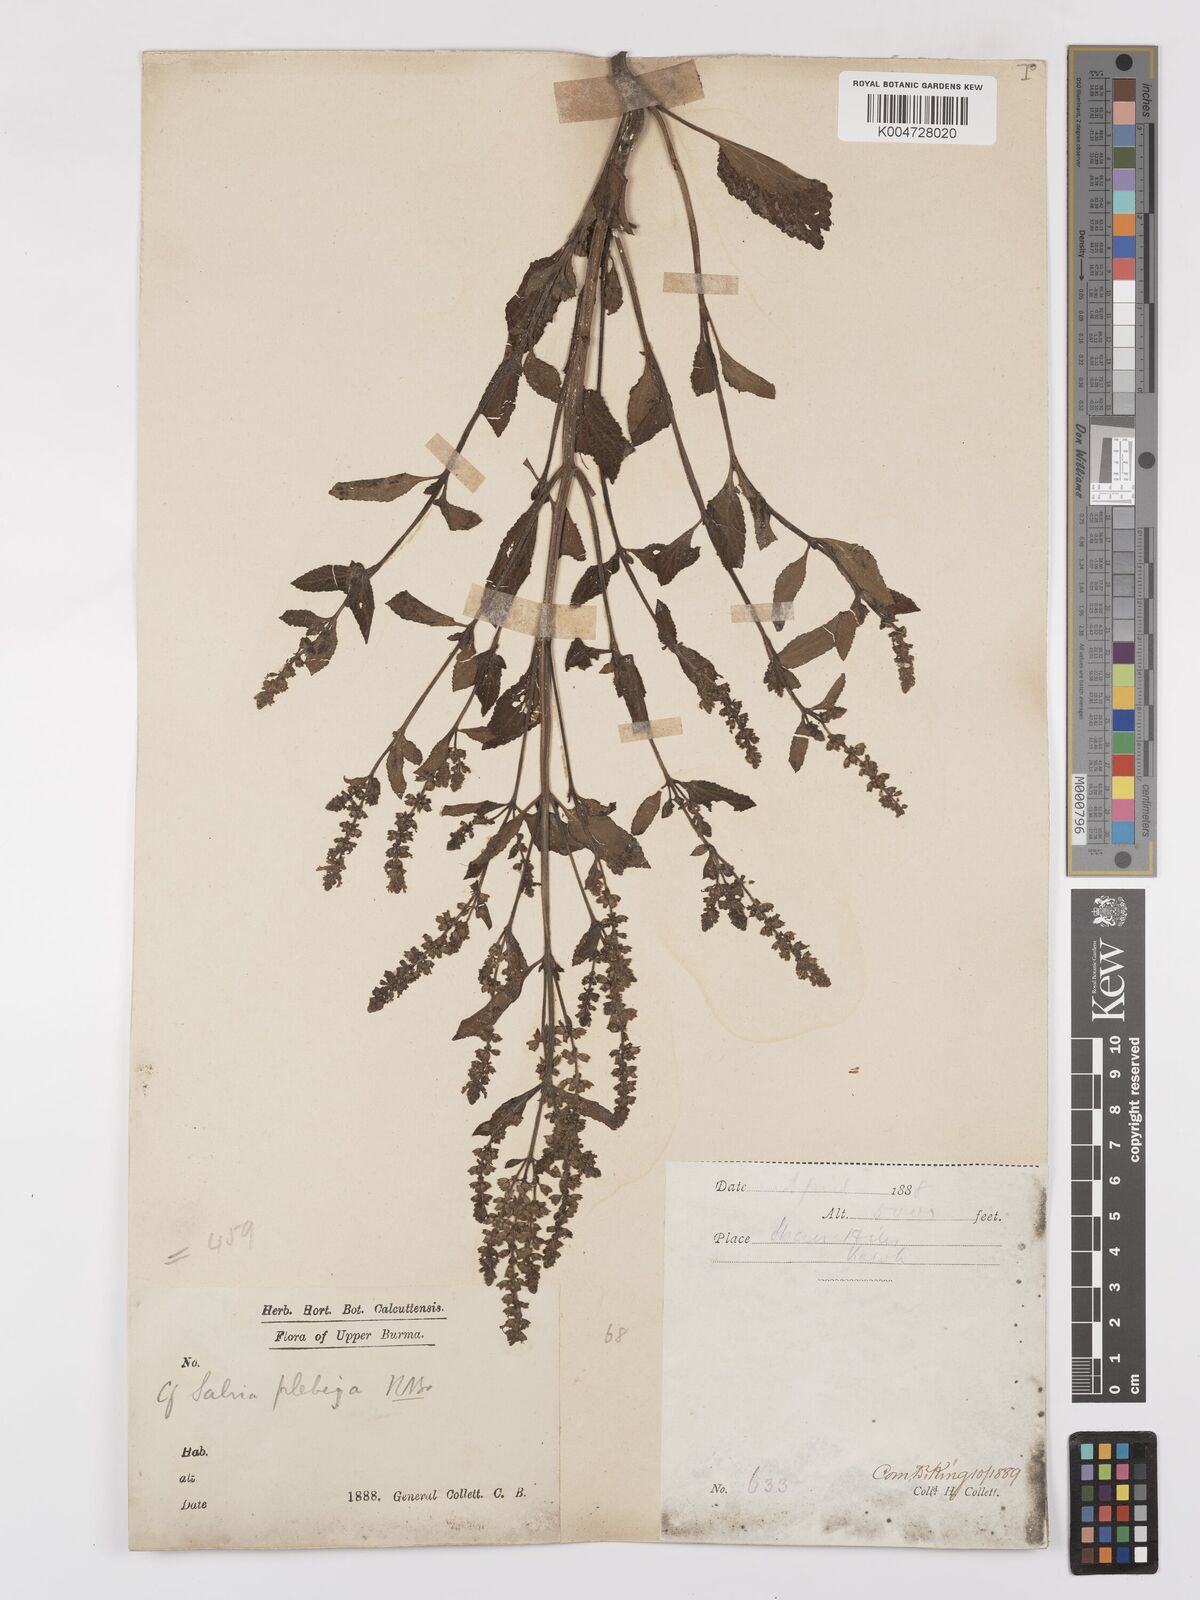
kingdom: Plantae
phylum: Tracheophyta
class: Magnoliopsida
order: Lamiales
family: Lamiaceae
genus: Salvia
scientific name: Salvia plebeia
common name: Australian sage
